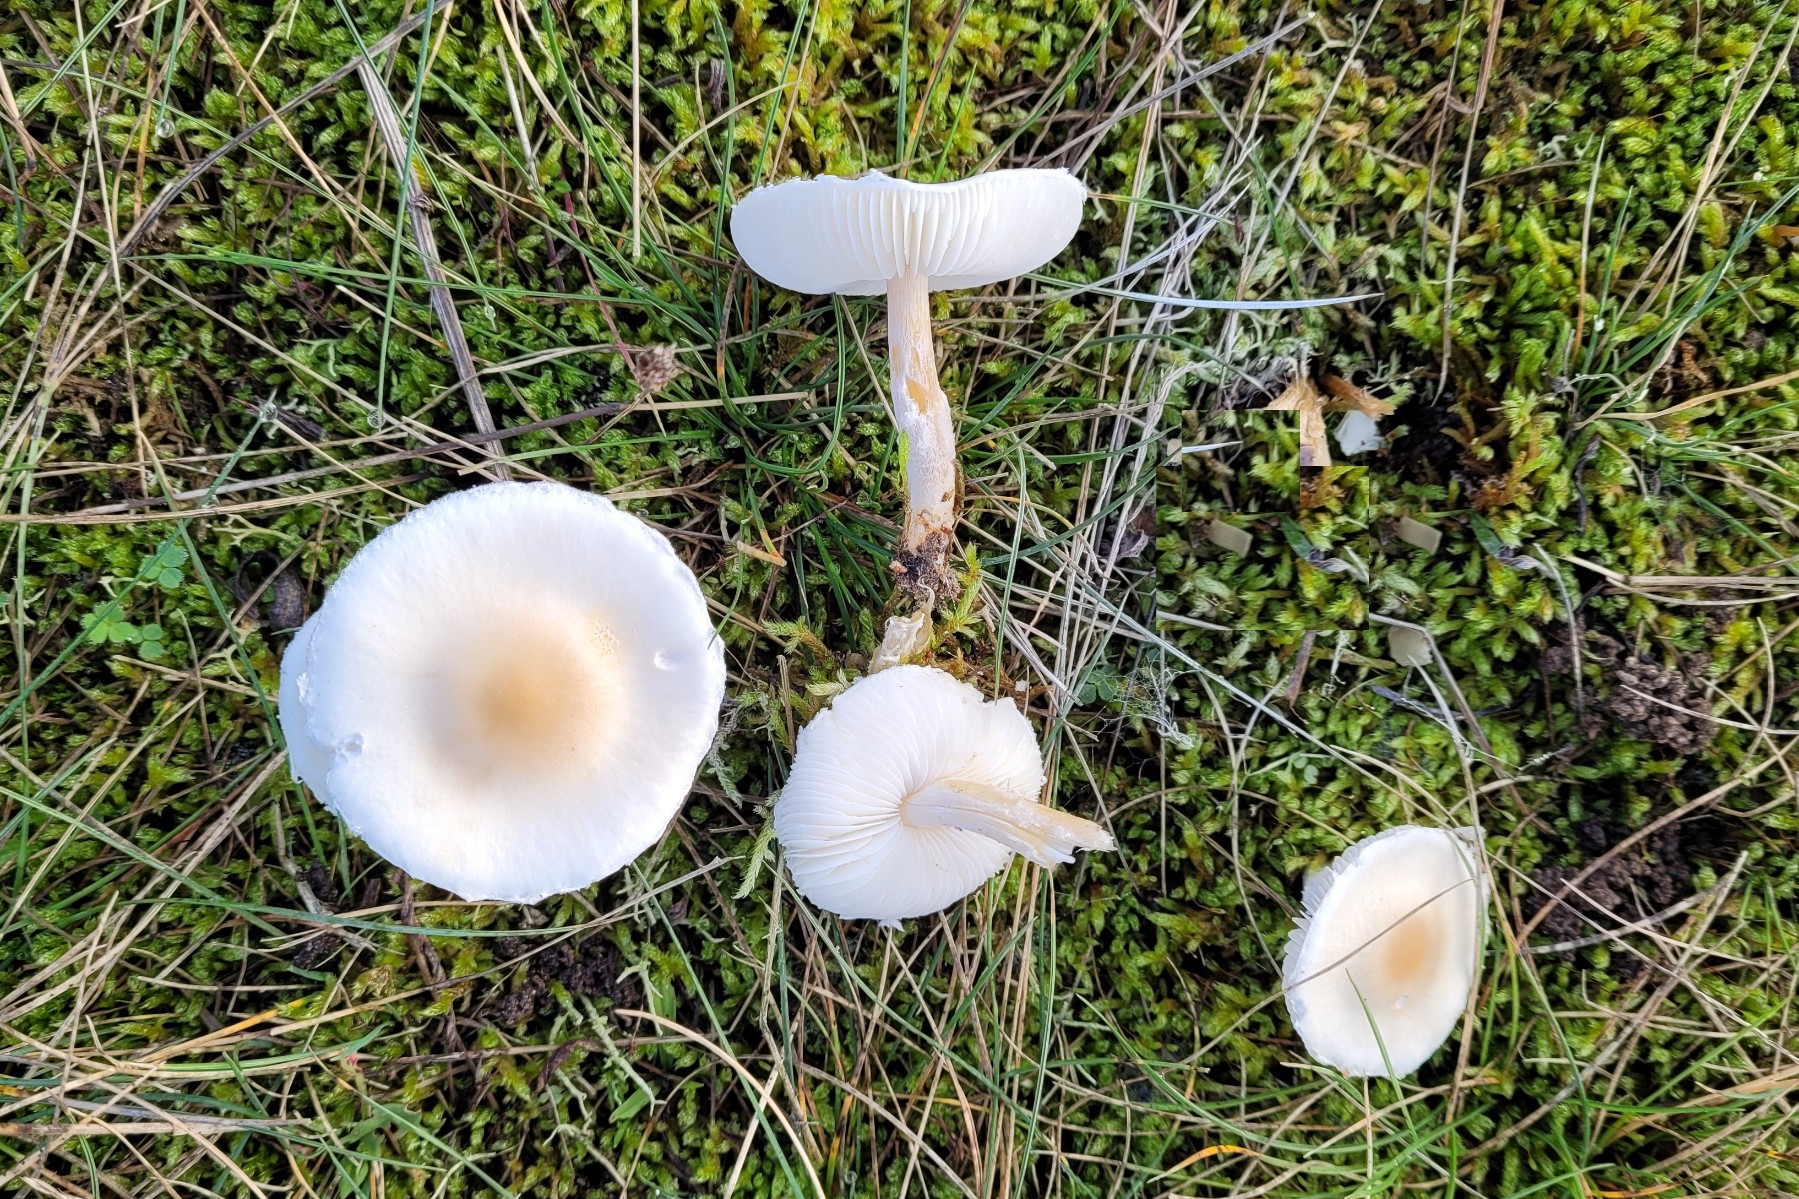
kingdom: Fungi
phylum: Basidiomycota
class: Agaricomycetes
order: Agaricales
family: Agaricaceae
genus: Lepiota
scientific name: Lepiota erminea
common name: hvid parasolhat
